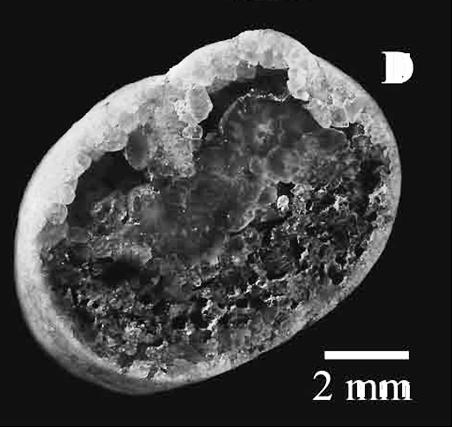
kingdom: Animalia
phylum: Mollusca
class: Gastropoda
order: Cycloneritida
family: Neridomidae
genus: Neridomus
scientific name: Neridomus Neritina cannabis
